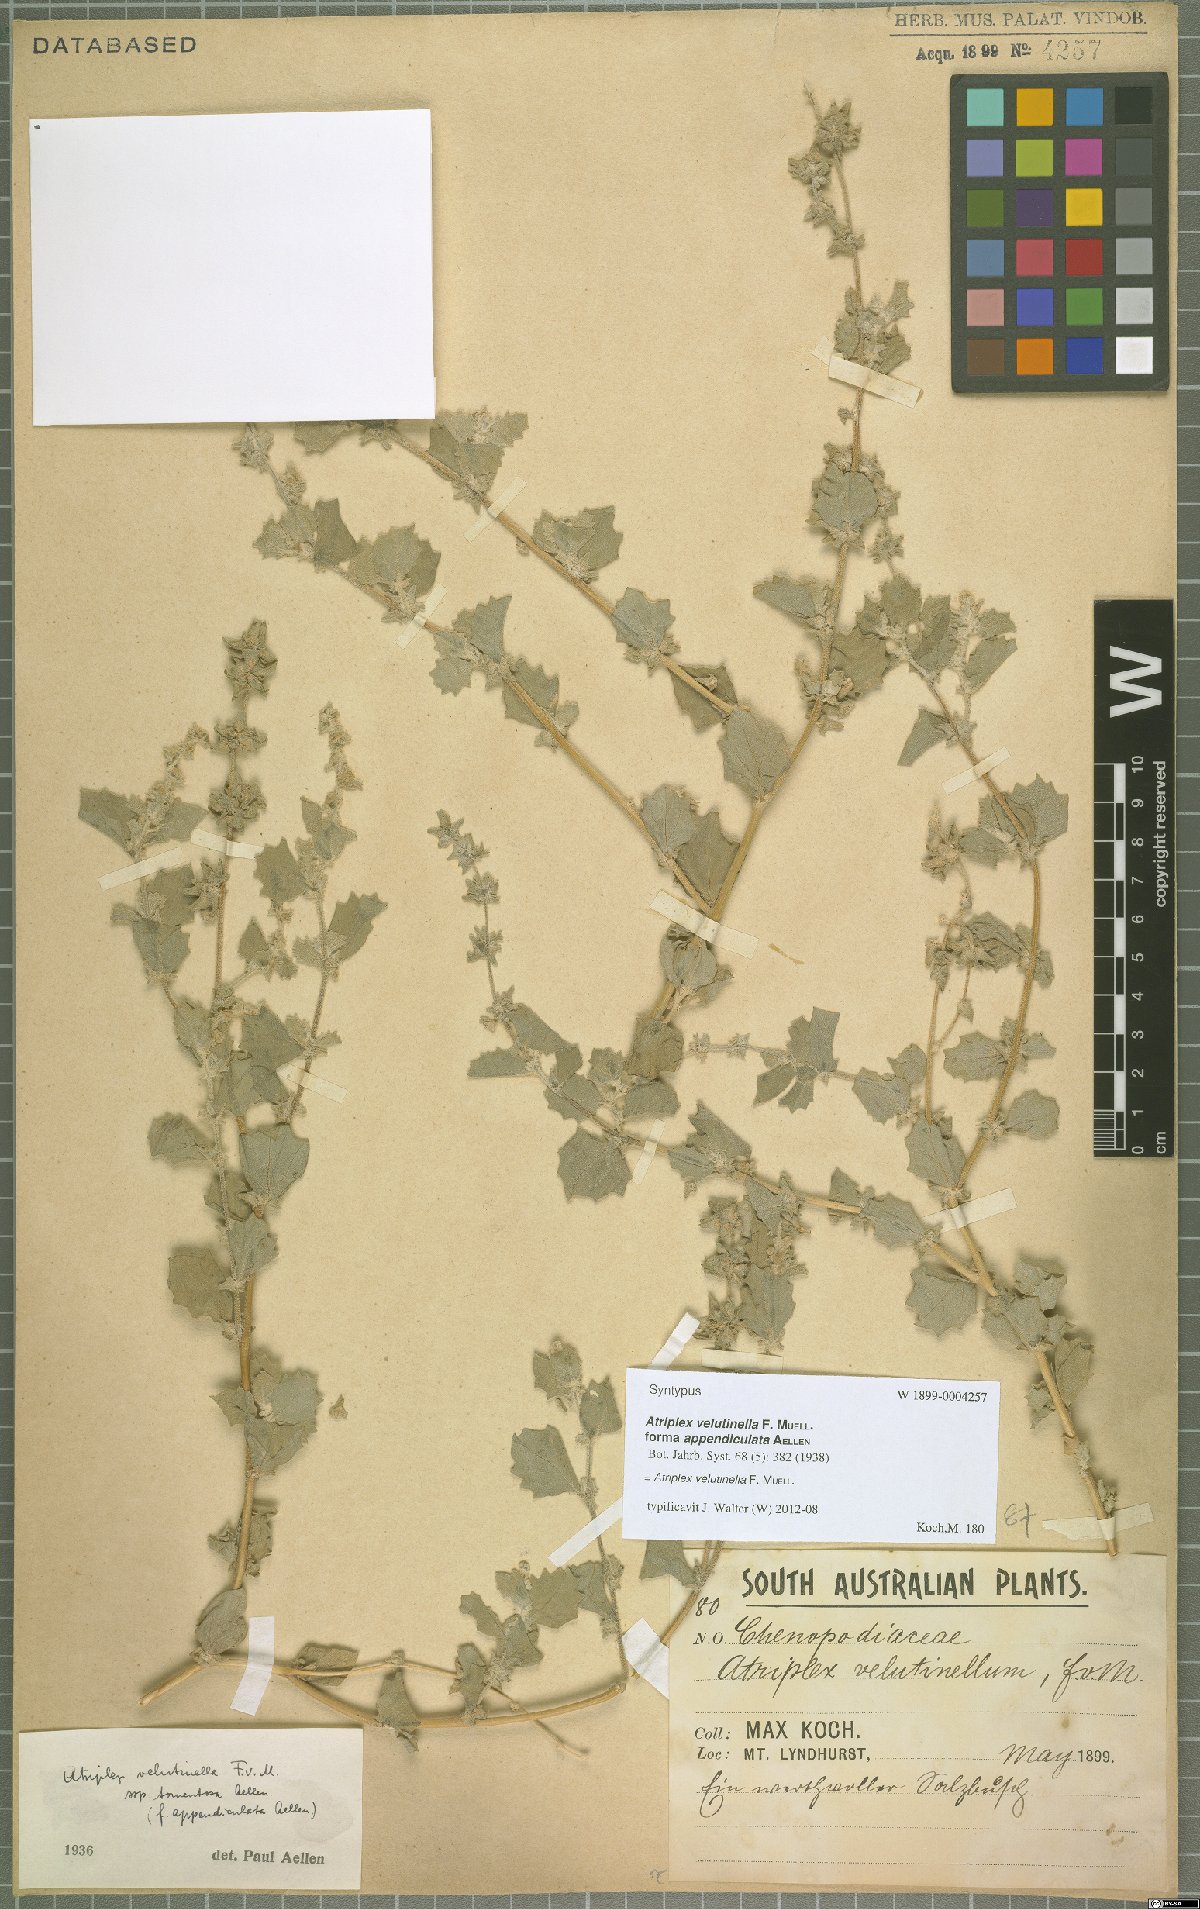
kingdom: Plantae
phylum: Tracheophyta
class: Magnoliopsida
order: Caryophyllales
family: Amaranthaceae
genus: Atriplex
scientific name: Atriplex velutinella
